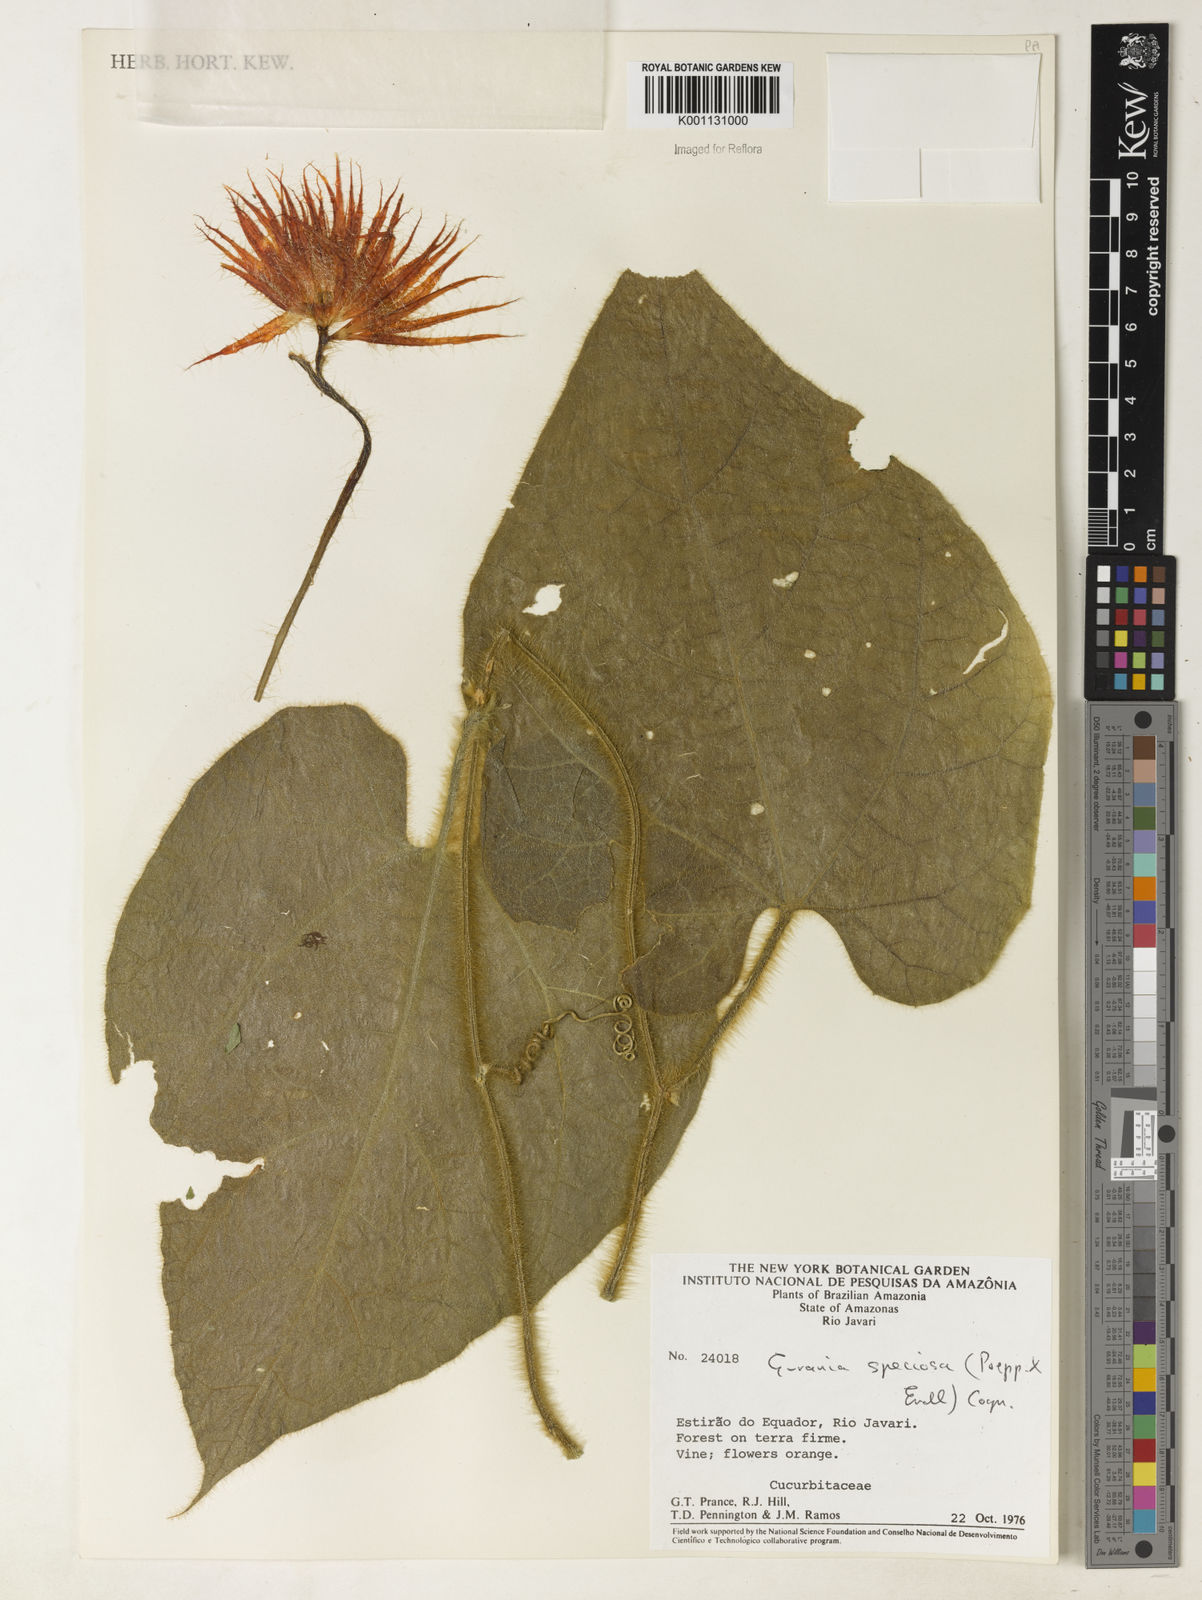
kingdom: Plantae
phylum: Tracheophyta
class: Magnoliopsida
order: Cucurbitales
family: Cucurbitaceae
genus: Gurania
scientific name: Gurania eriantha
